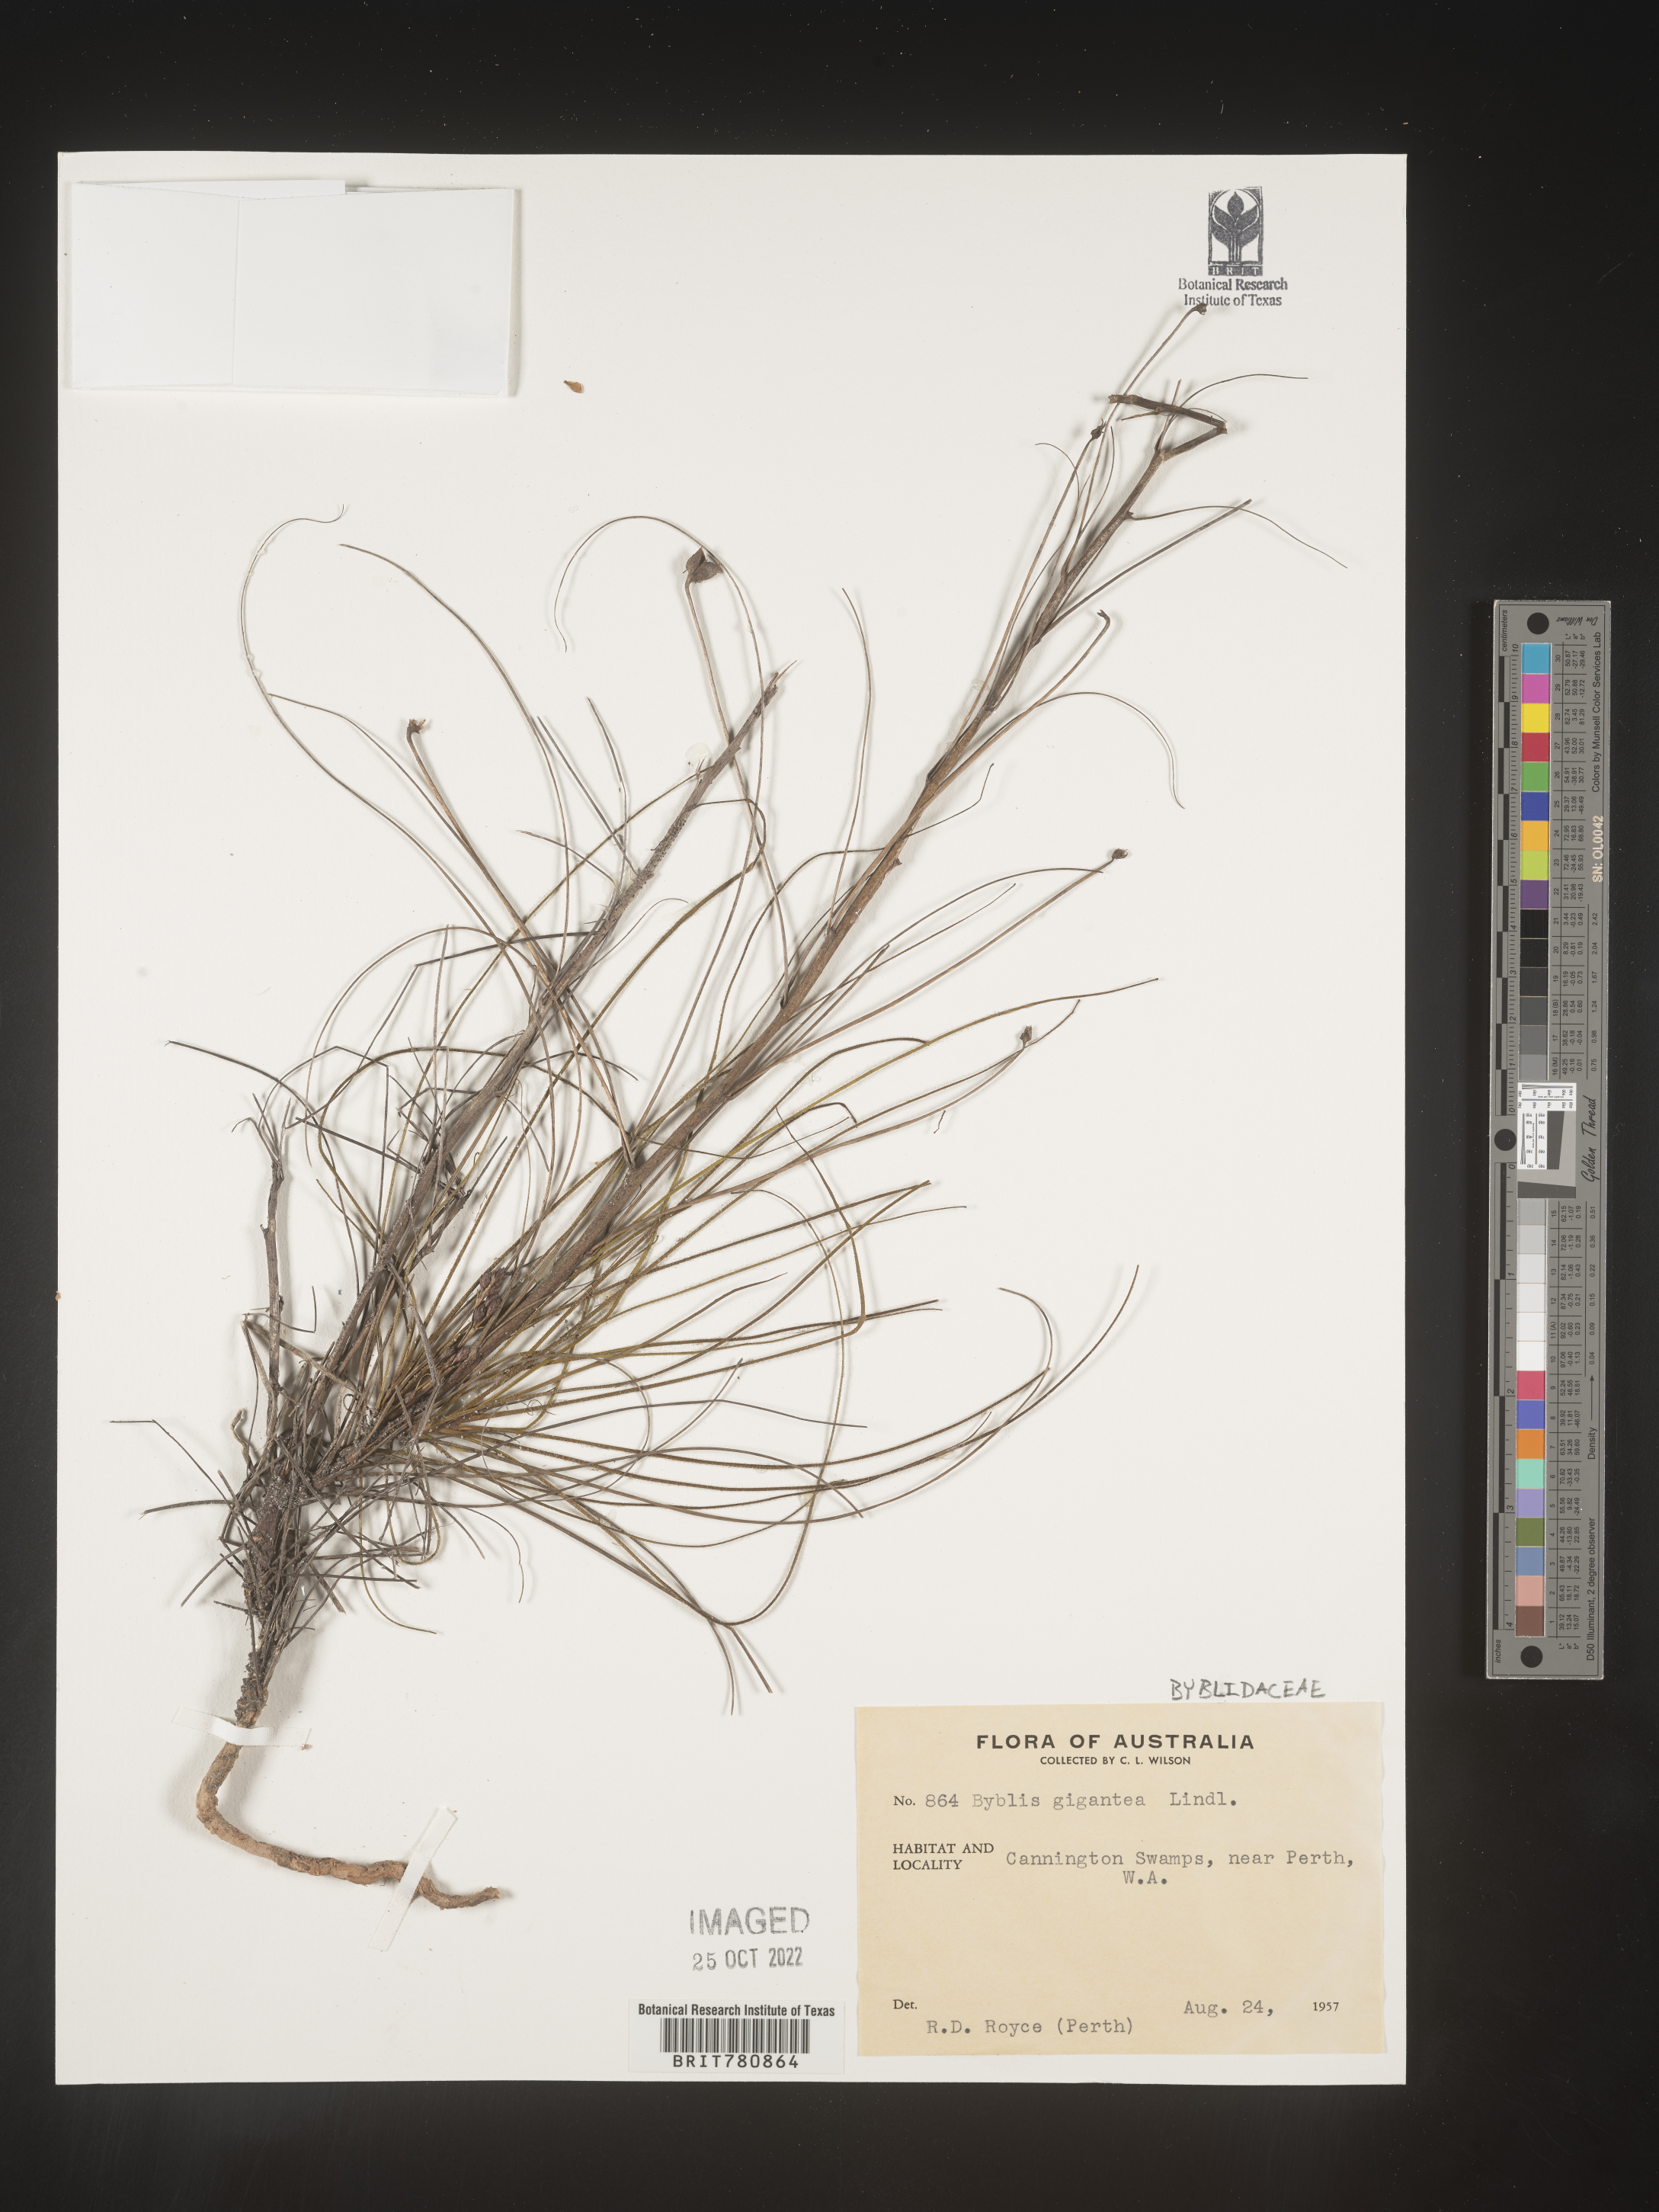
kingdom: Plantae
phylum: Tracheophyta
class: Magnoliopsida
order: Lamiales
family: Byblidaceae
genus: Byblis
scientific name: Byblis gigantea
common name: Rainbowplant
